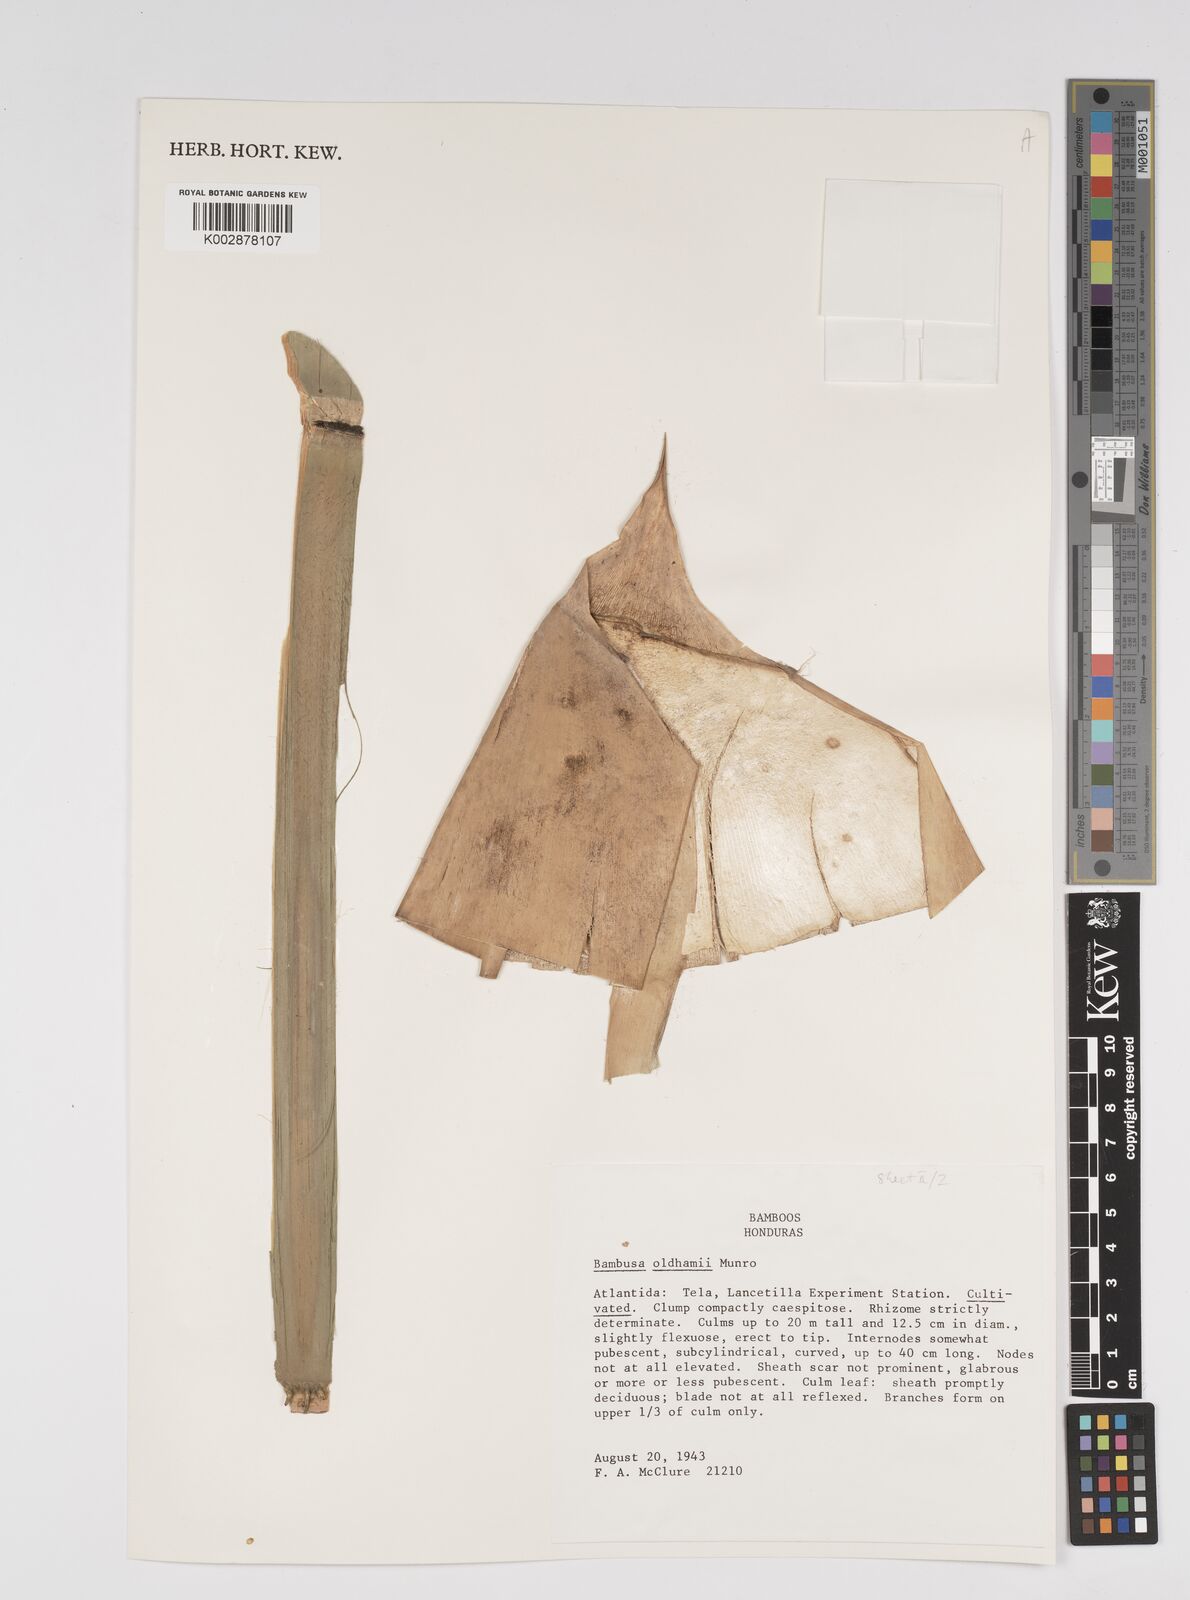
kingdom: Plantae
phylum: Tracheophyta
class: Liliopsida
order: Poales
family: Poaceae
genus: Bambusa
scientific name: Bambusa oldhamii
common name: Giant timber bamboo
